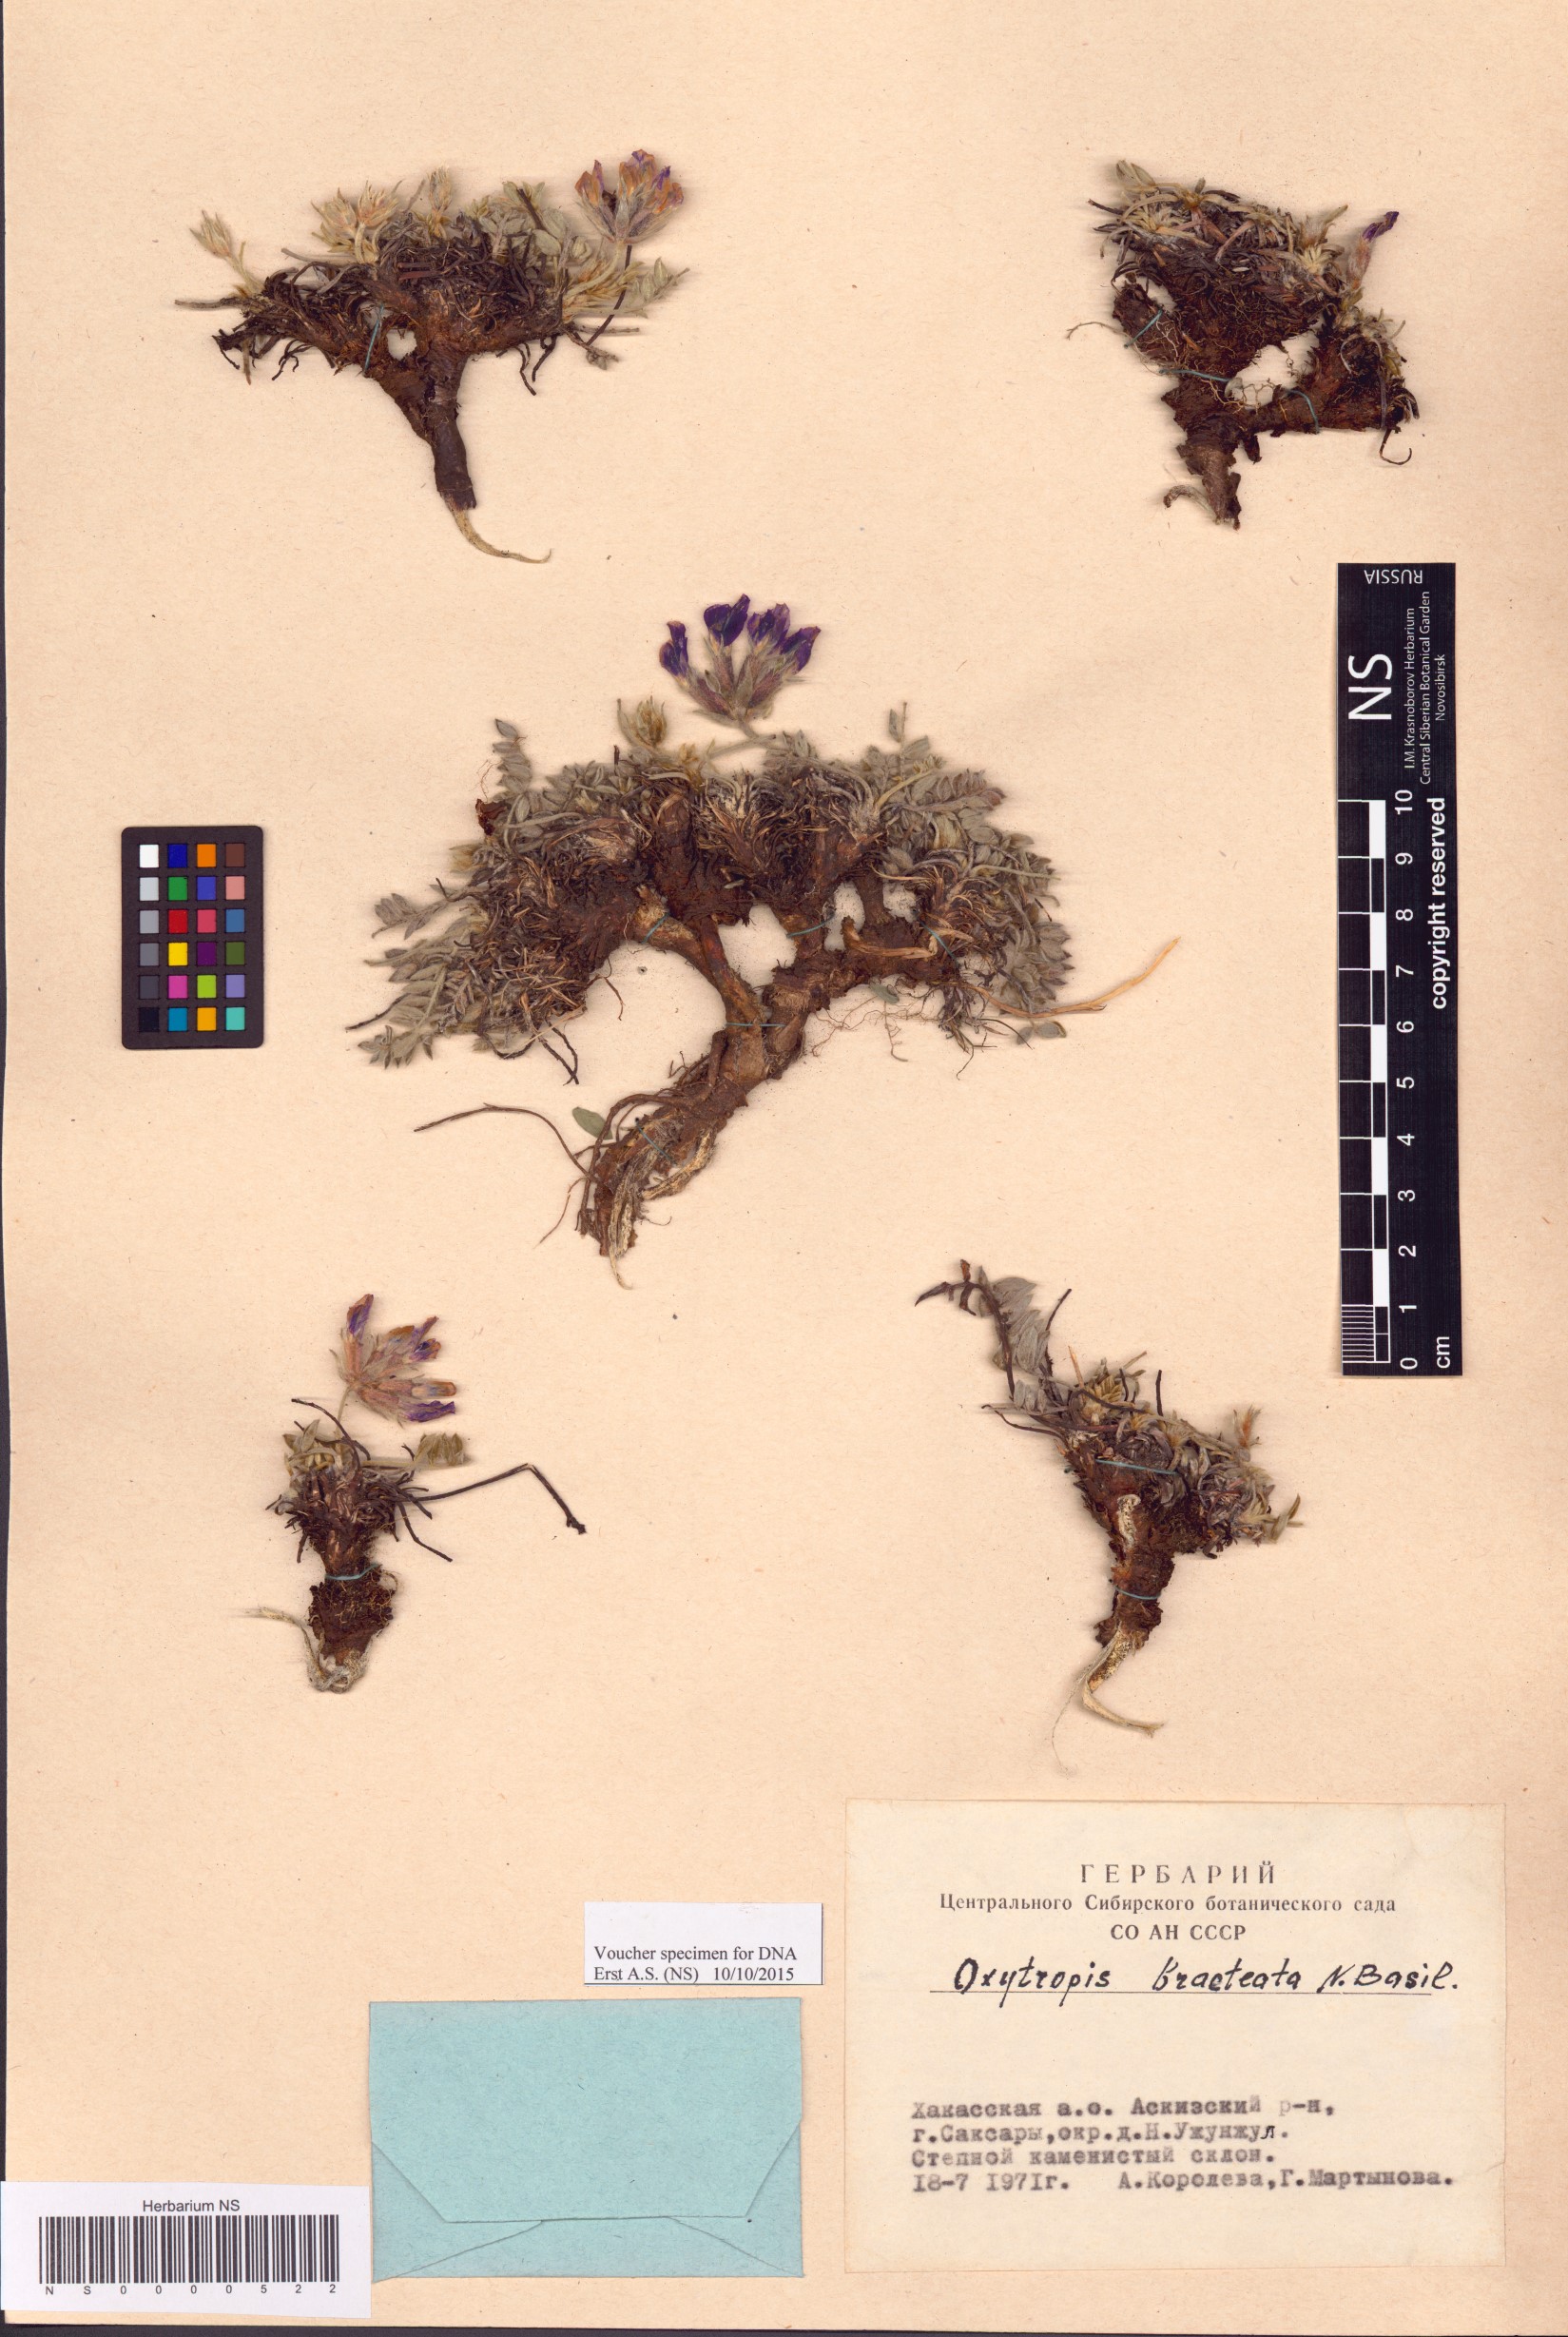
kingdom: Plantae
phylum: Tracheophyta
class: Magnoliopsida
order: Fabales
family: Fabaceae
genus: Oxytropis
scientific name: Oxytropis bracteata
